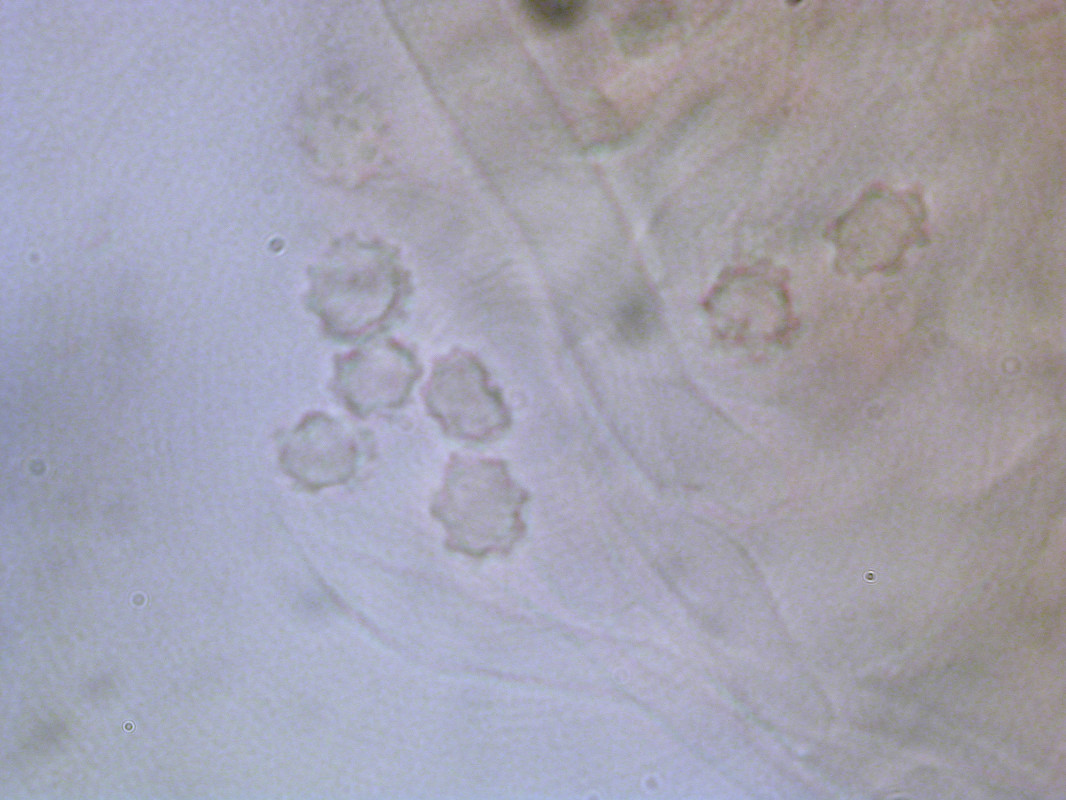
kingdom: Fungi
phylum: Basidiomycota
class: Agaricomycetes
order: Thelephorales
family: Bankeraceae
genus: Hydnellum
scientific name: Hydnellum scabrosum
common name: blåfodet korkpigsvamp
